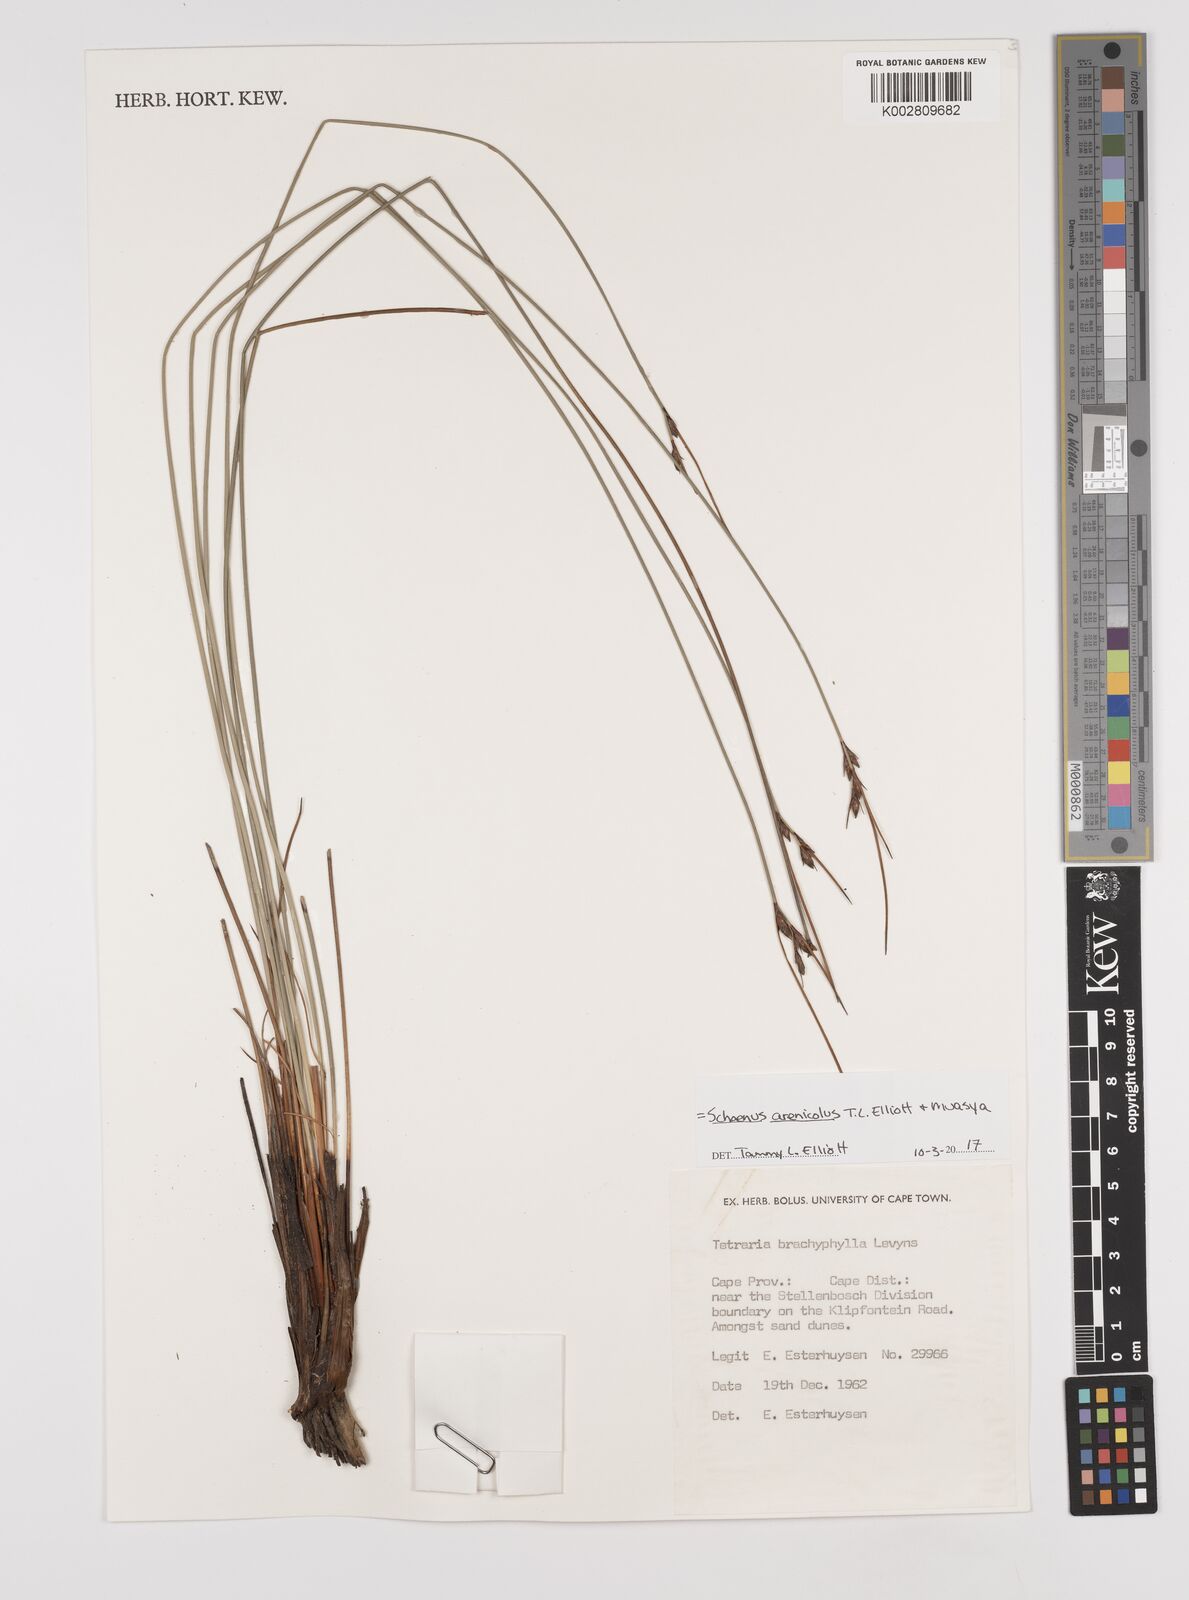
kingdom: Plantae
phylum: Tracheophyta
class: Liliopsida
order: Poales
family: Cyperaceae
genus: Schoenus
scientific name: Schoenus arenicola
